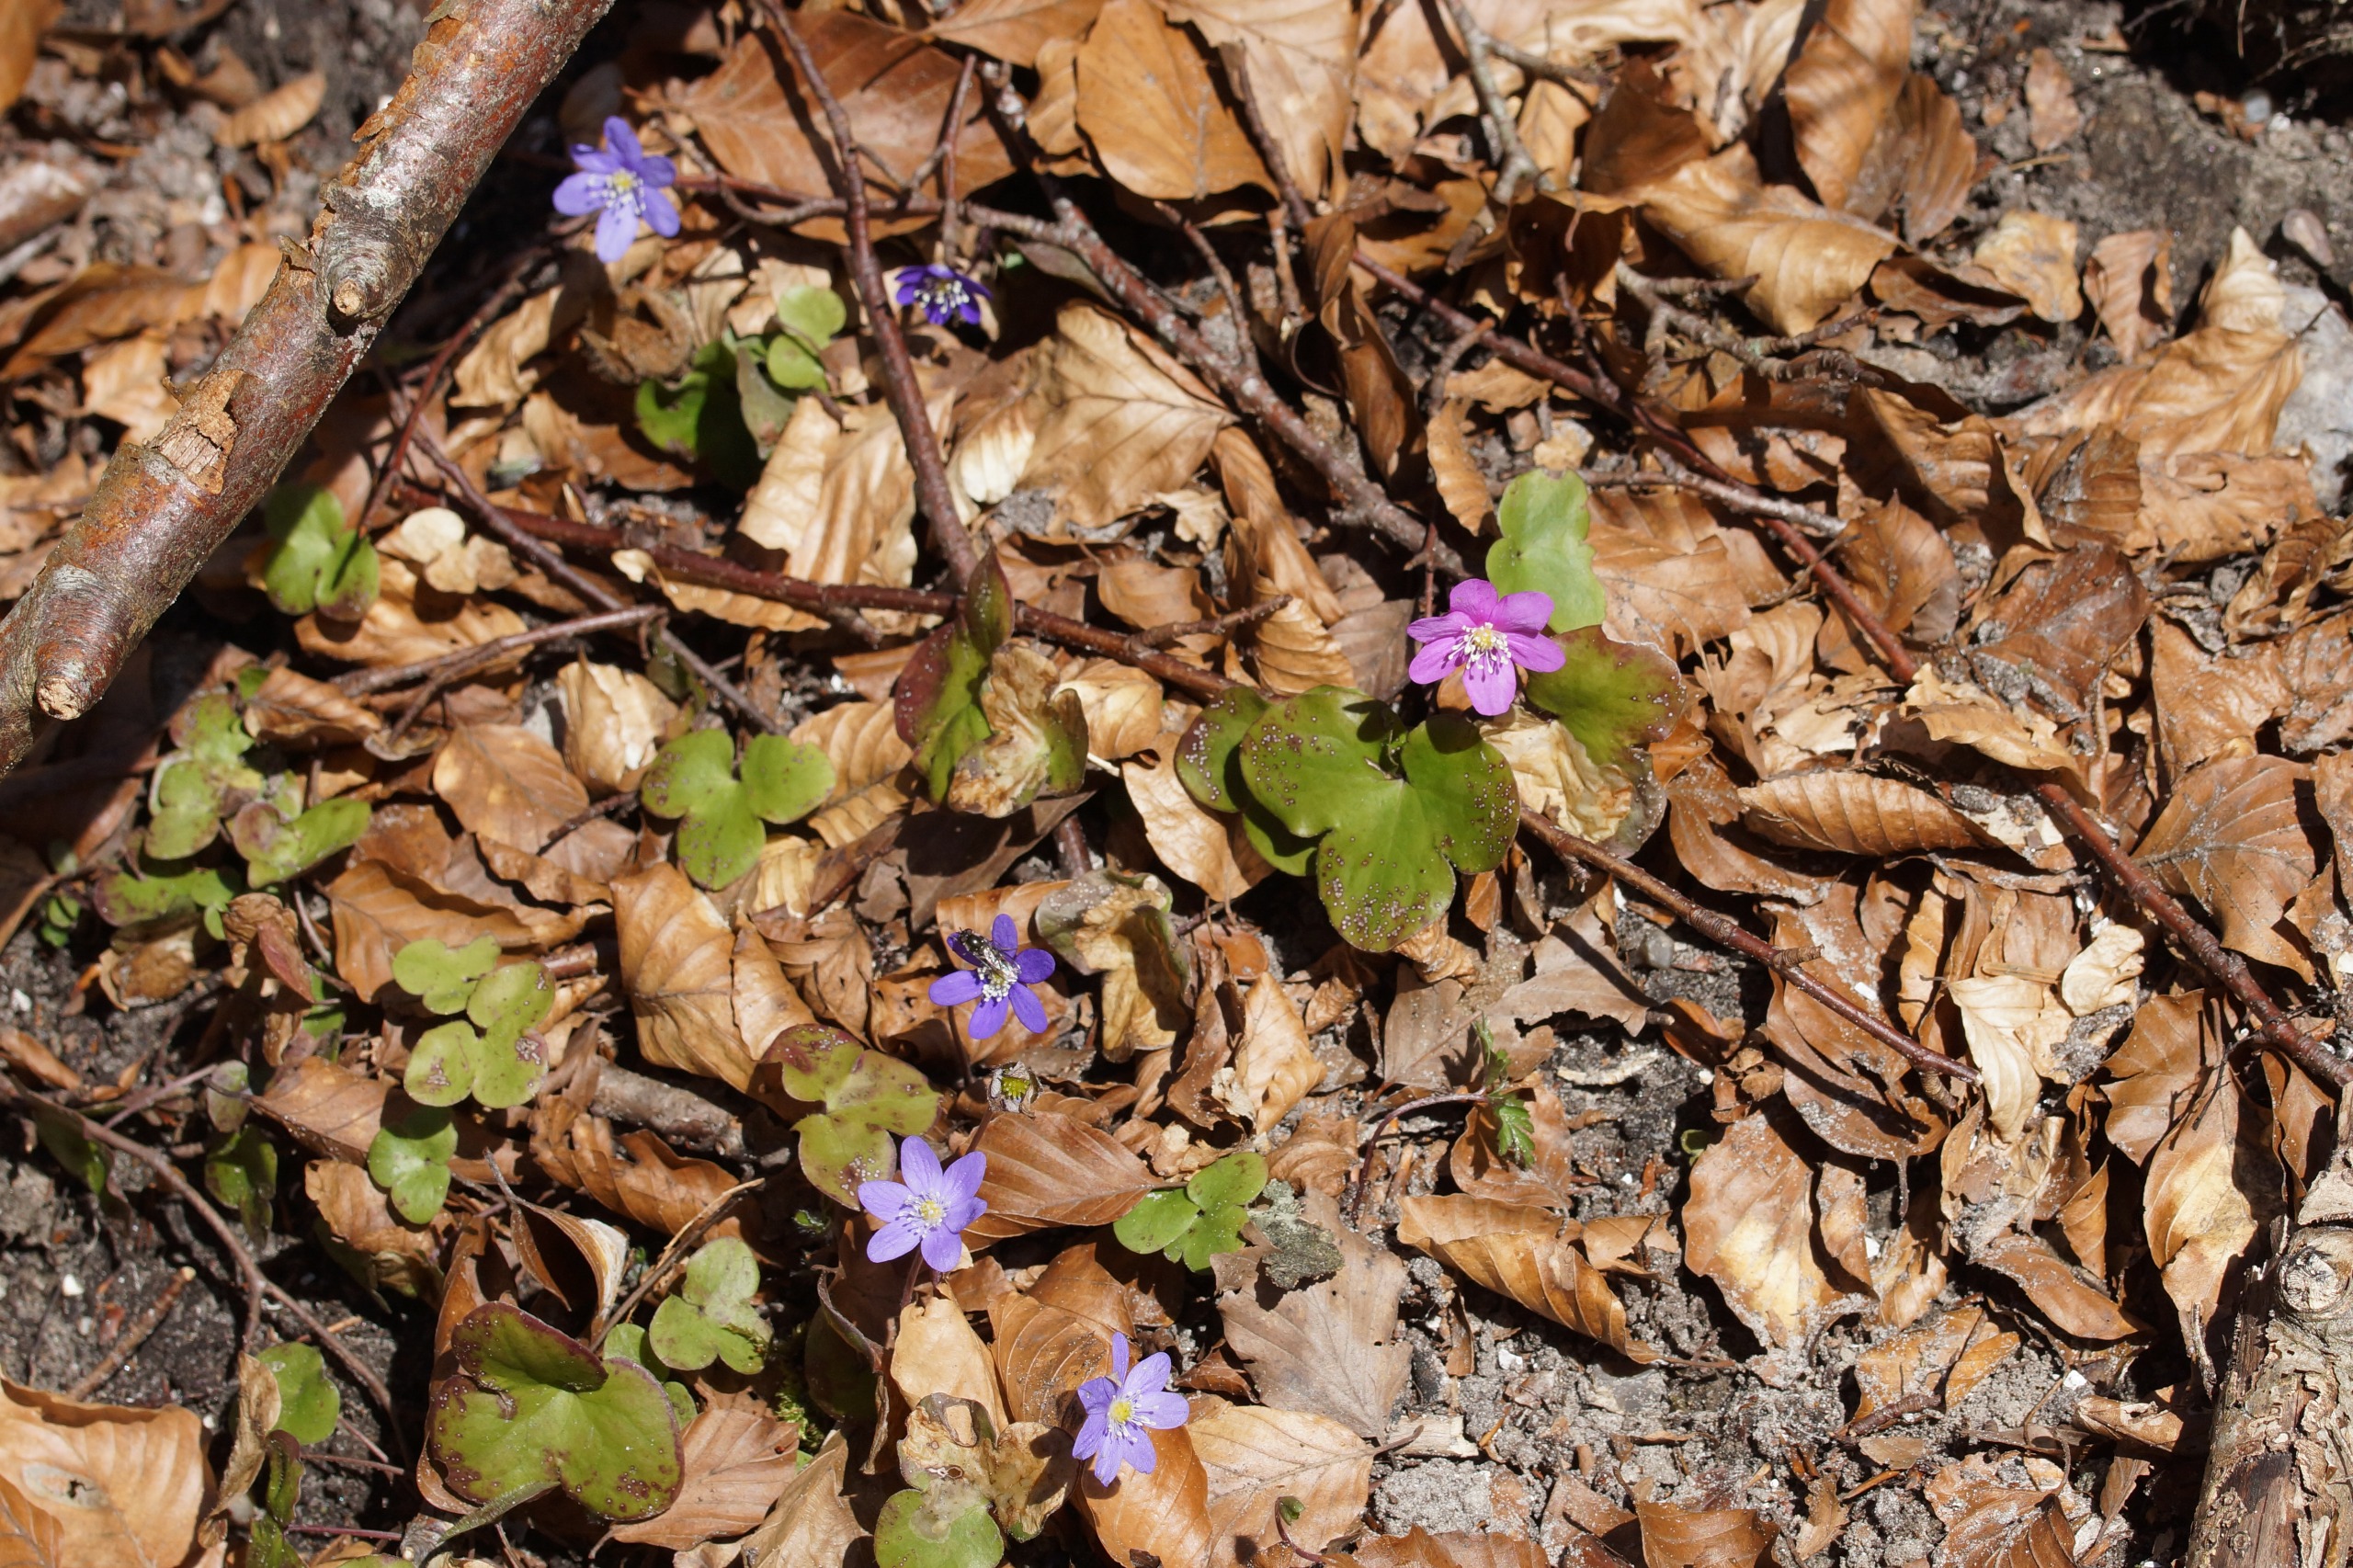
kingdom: Plantae
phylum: Tracheophyta
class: Magnoliopsida
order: Ranunculales
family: Ranunculaceae
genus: Hepatica
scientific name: Hepatica nobilis
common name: Blå anemone
